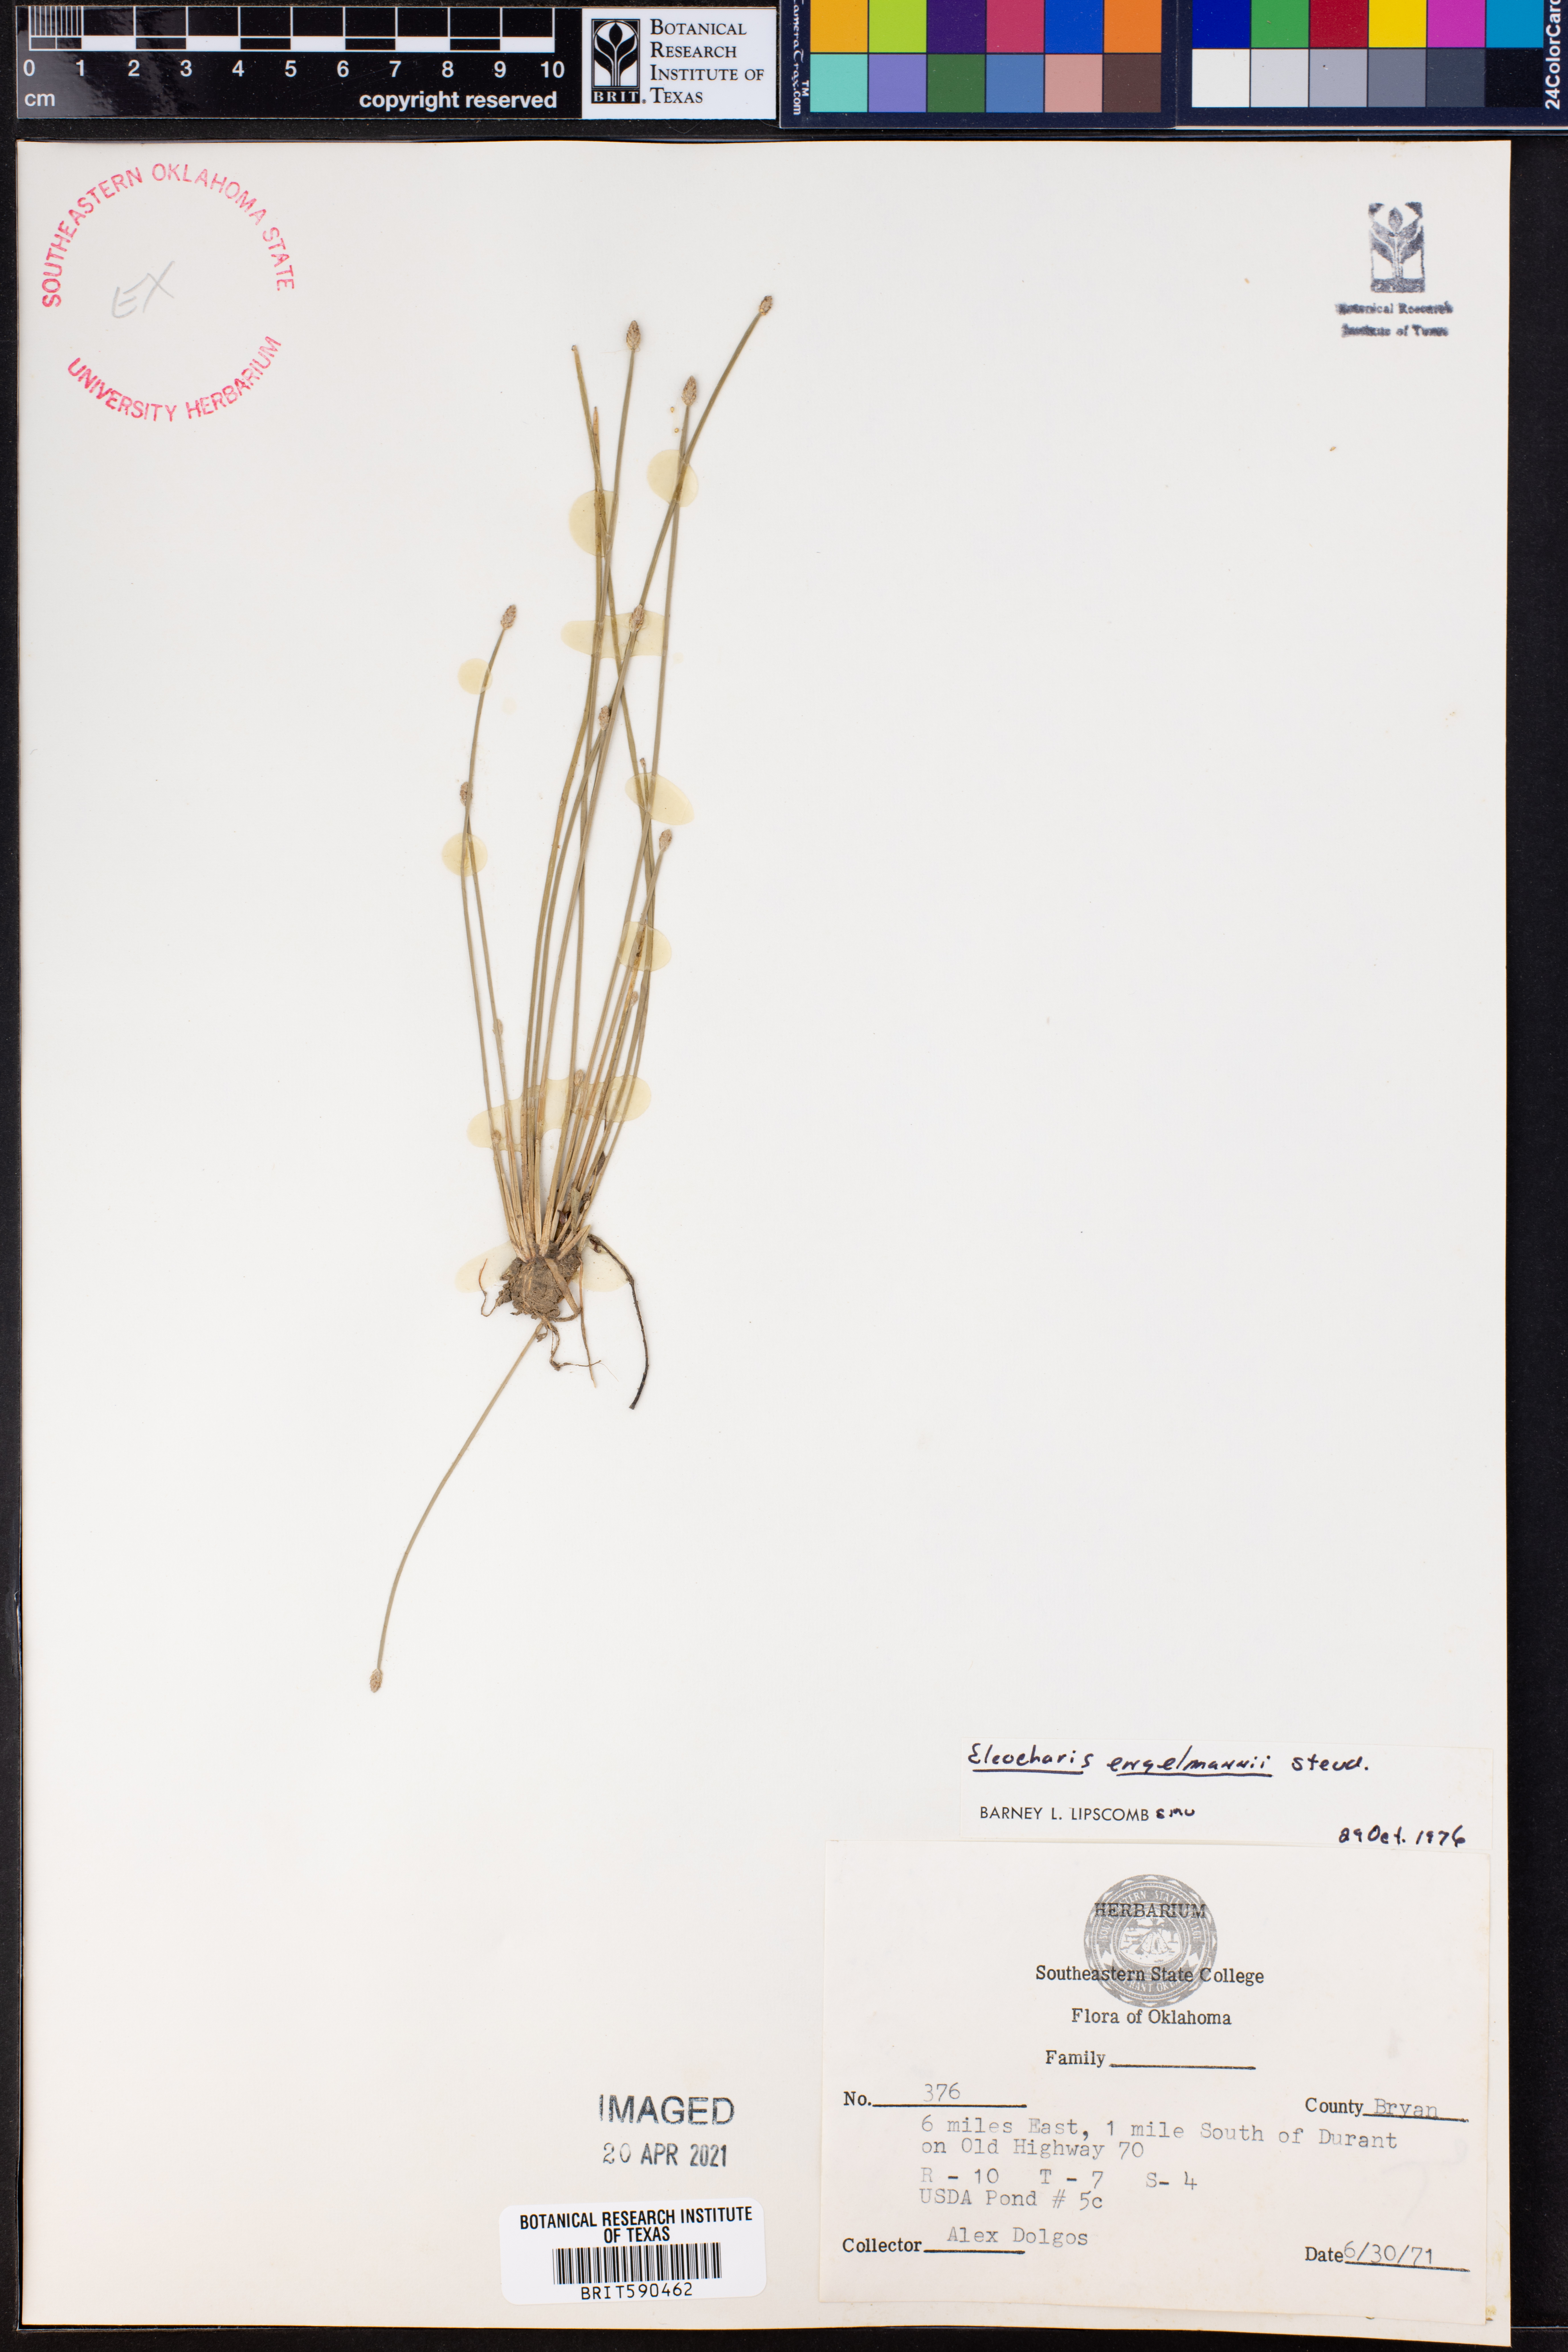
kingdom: Plantae
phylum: Tracheophyta
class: Liliopsida
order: Poales
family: Cyperaceae
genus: Eleocharis
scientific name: Eleocharis engelmannii
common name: Engelmann's spikerush
